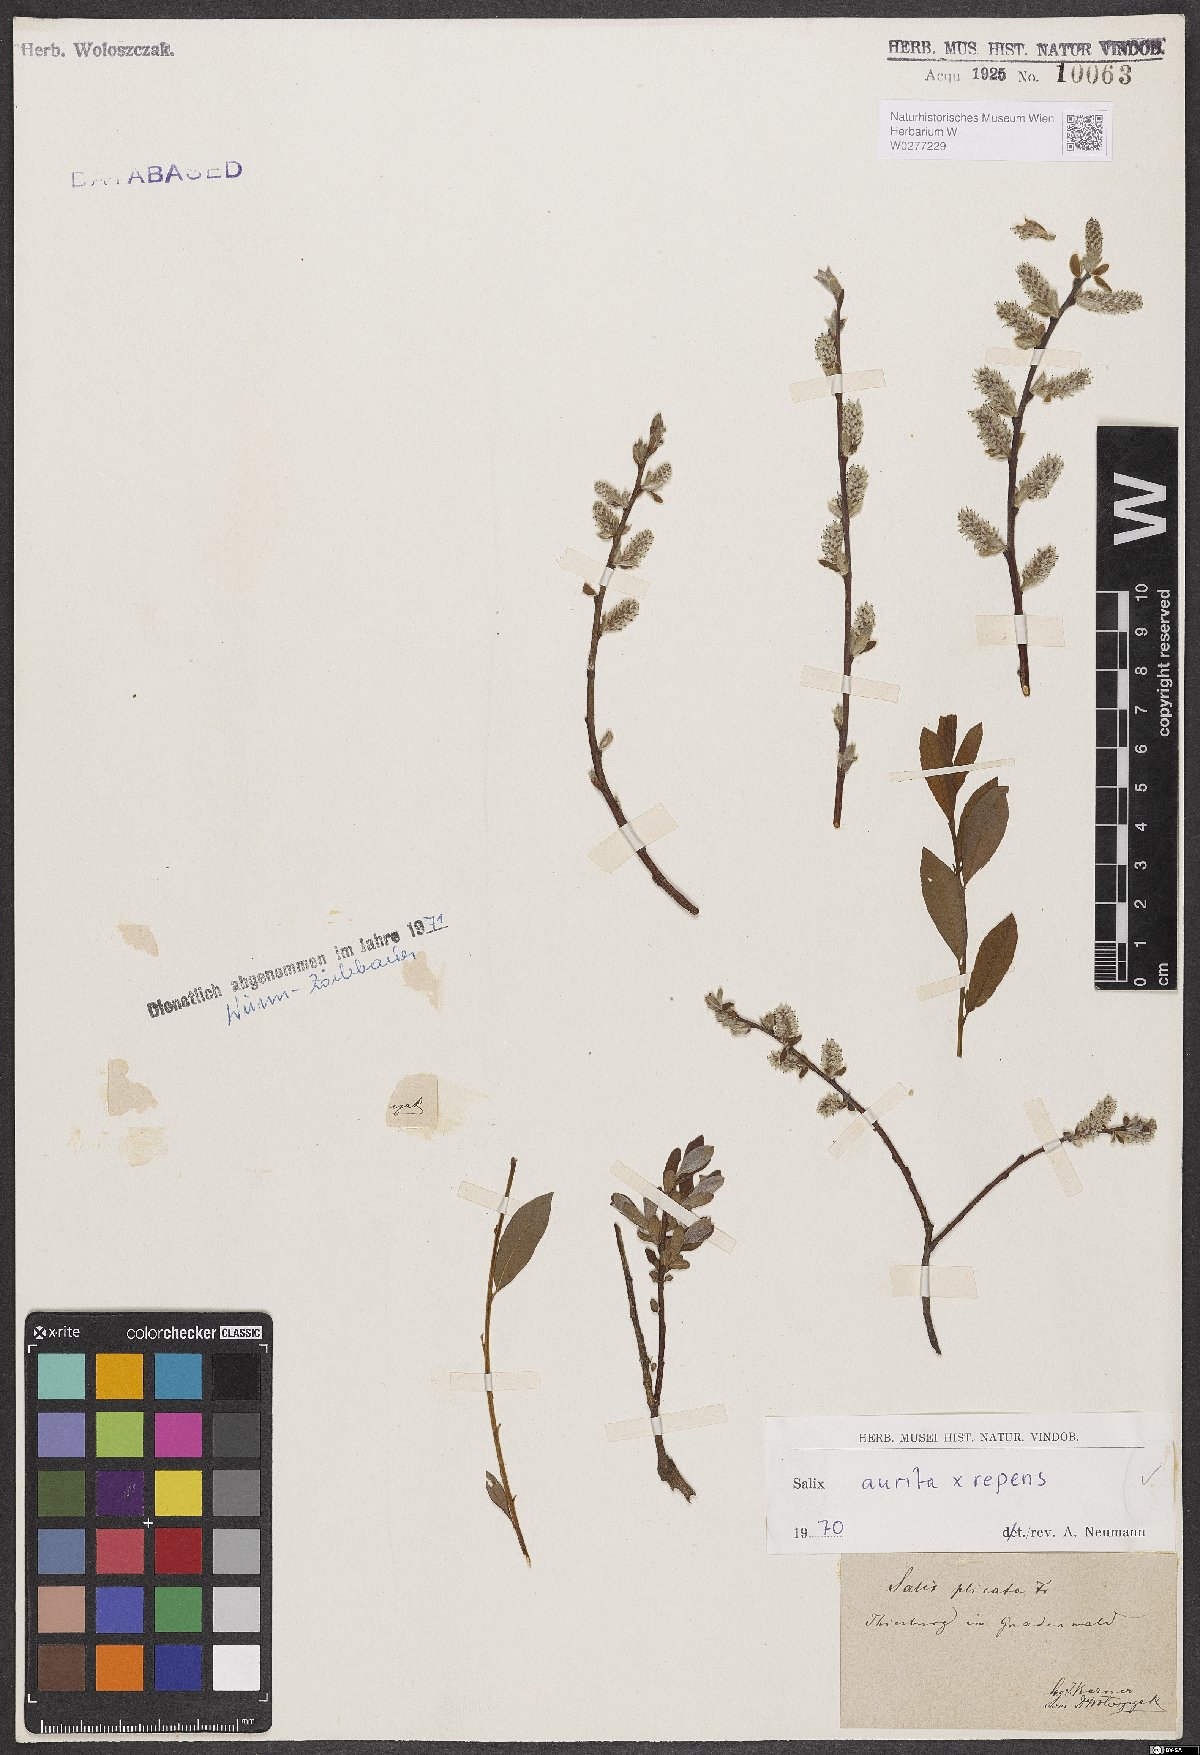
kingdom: Plantae
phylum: Tracheophyta
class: Magnoliopsida
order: Malpighiales
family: Salicaceae
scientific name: Salicaceae
